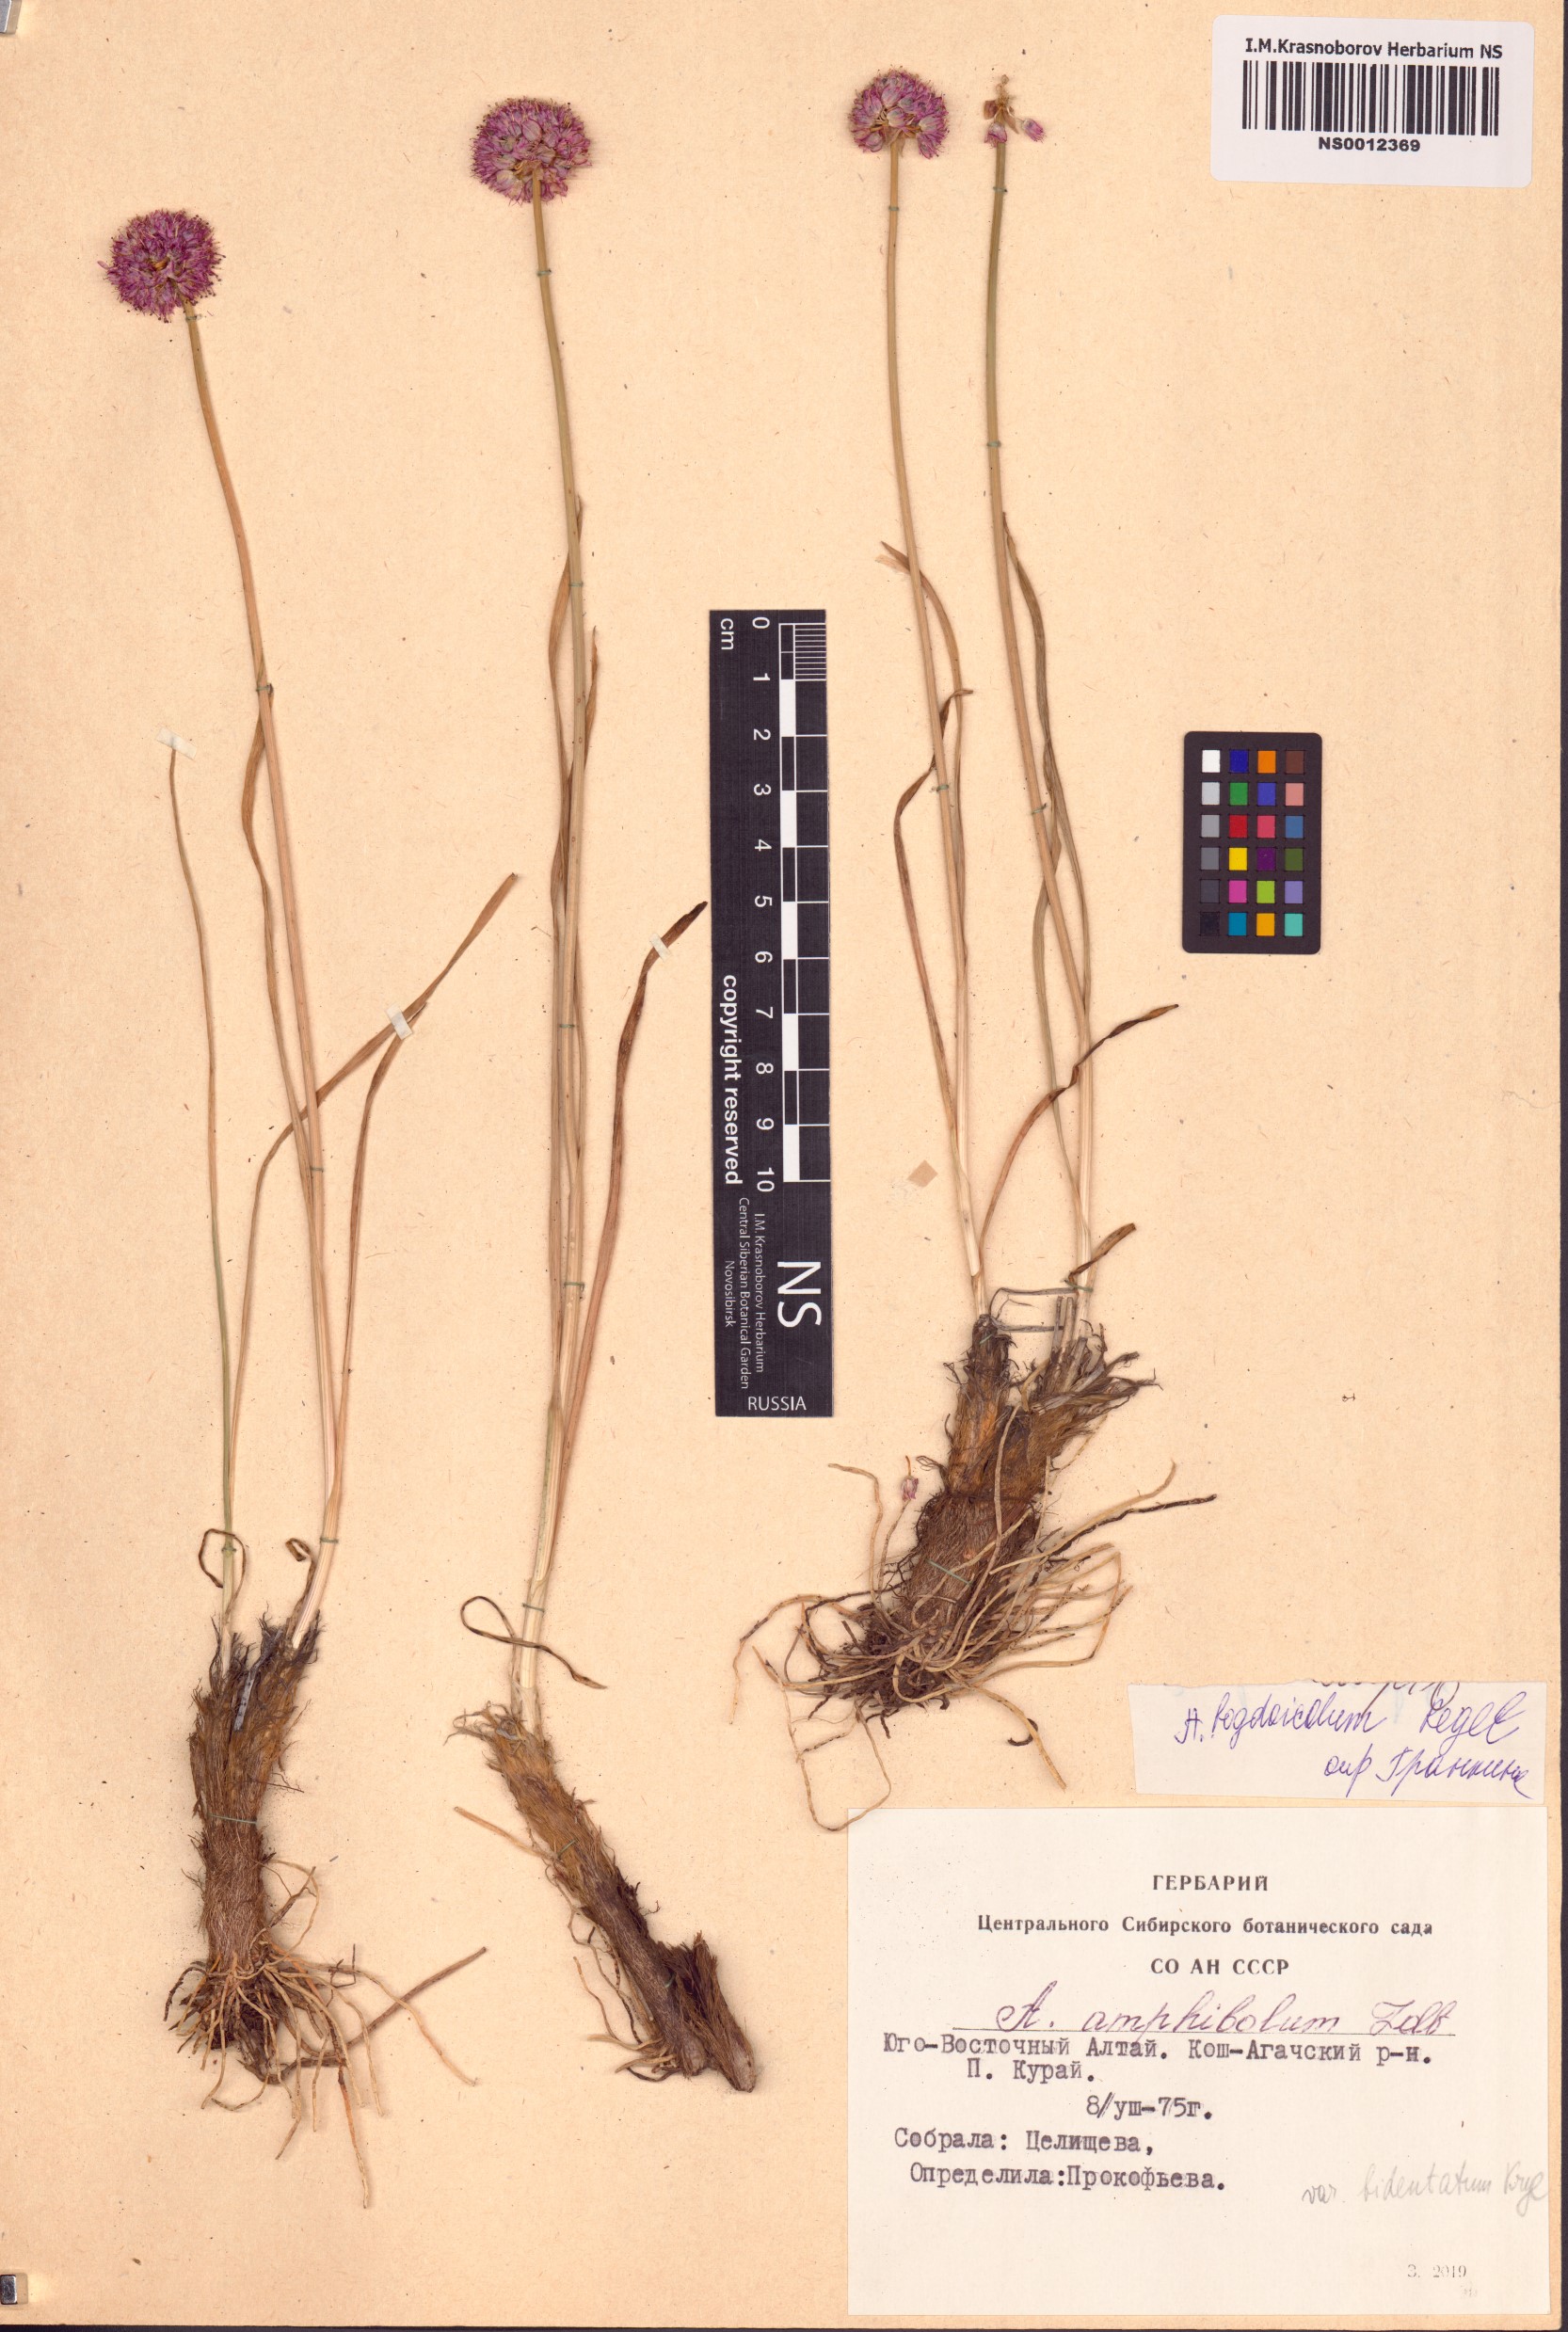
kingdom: Plantae
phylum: Tracheophyta
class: Liliopsida
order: Asparagales
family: Amaryllidaceae
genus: Allium
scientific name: Allium schrenkii
